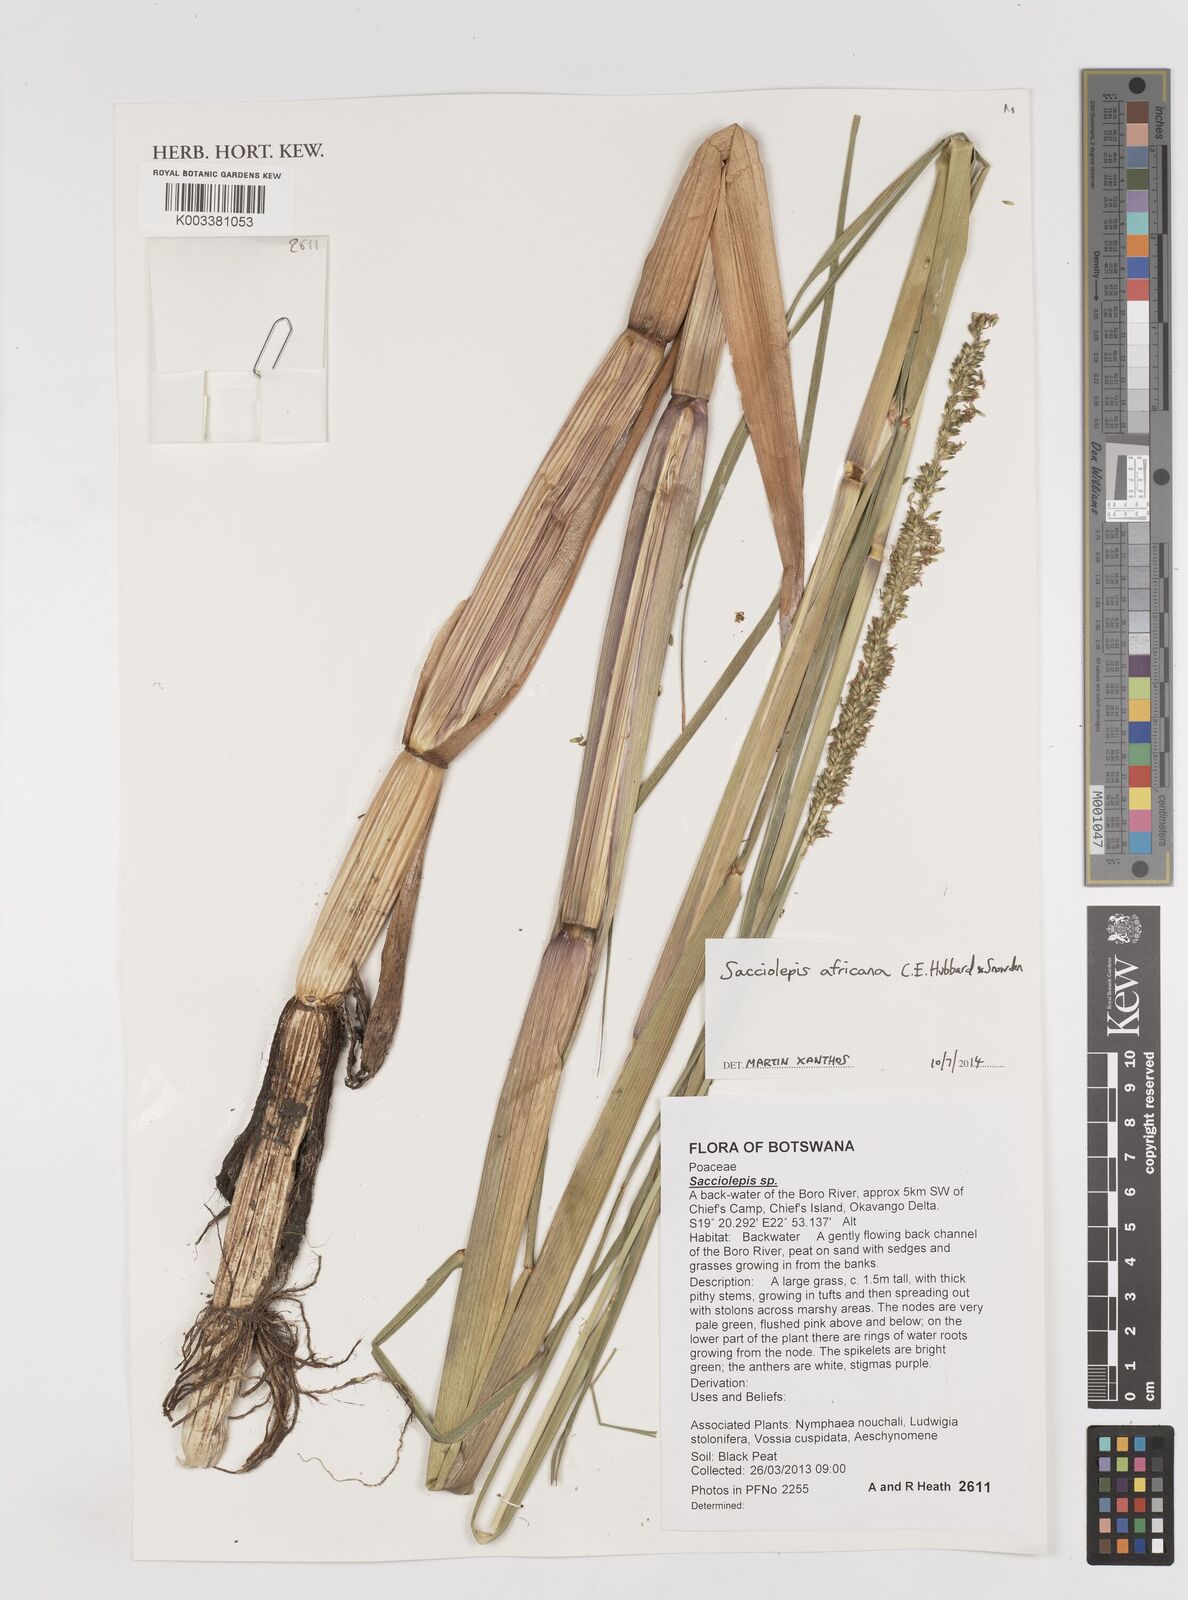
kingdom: Plantae
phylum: Tracheophyta
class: Liliopsida
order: Poales
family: Poaceae
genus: Sacciolepis
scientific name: Sacciolepis africana
